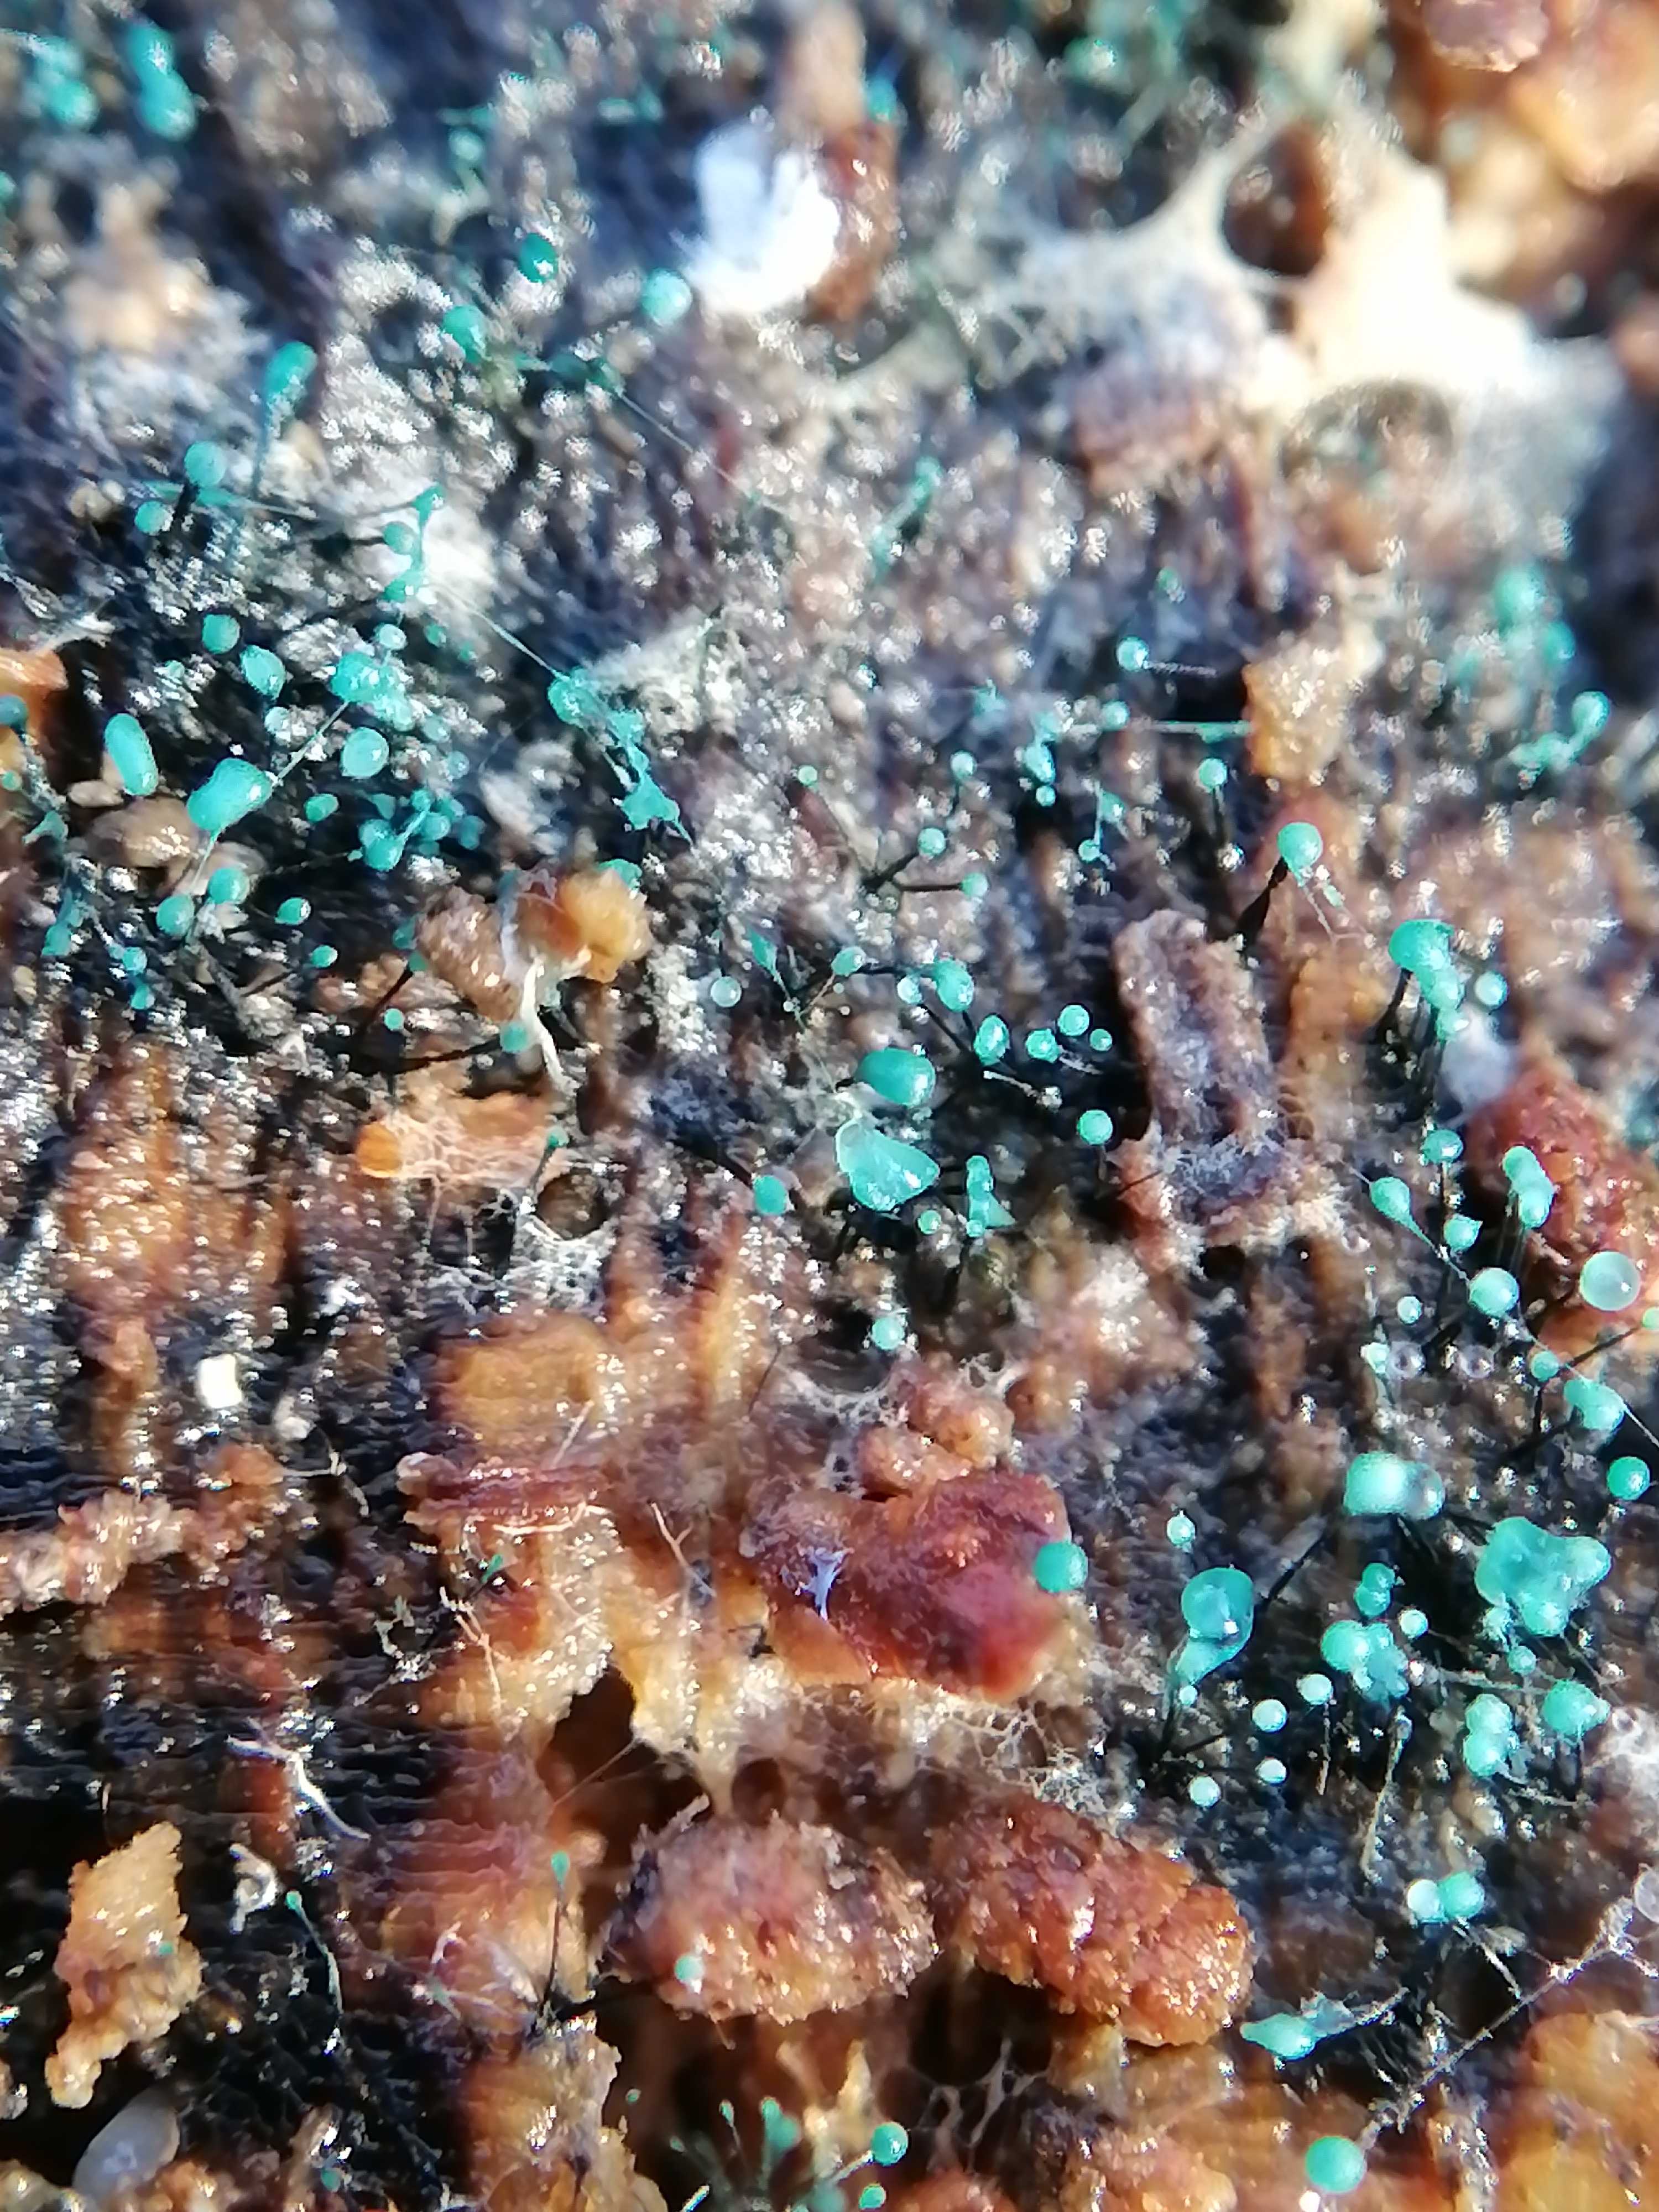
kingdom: Fungi
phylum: Ascomycota
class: Leotiomycetes
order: Leotiales
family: Tympanidaceae
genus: Dendrostilbella
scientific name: Dendrostilbella smaragdina
